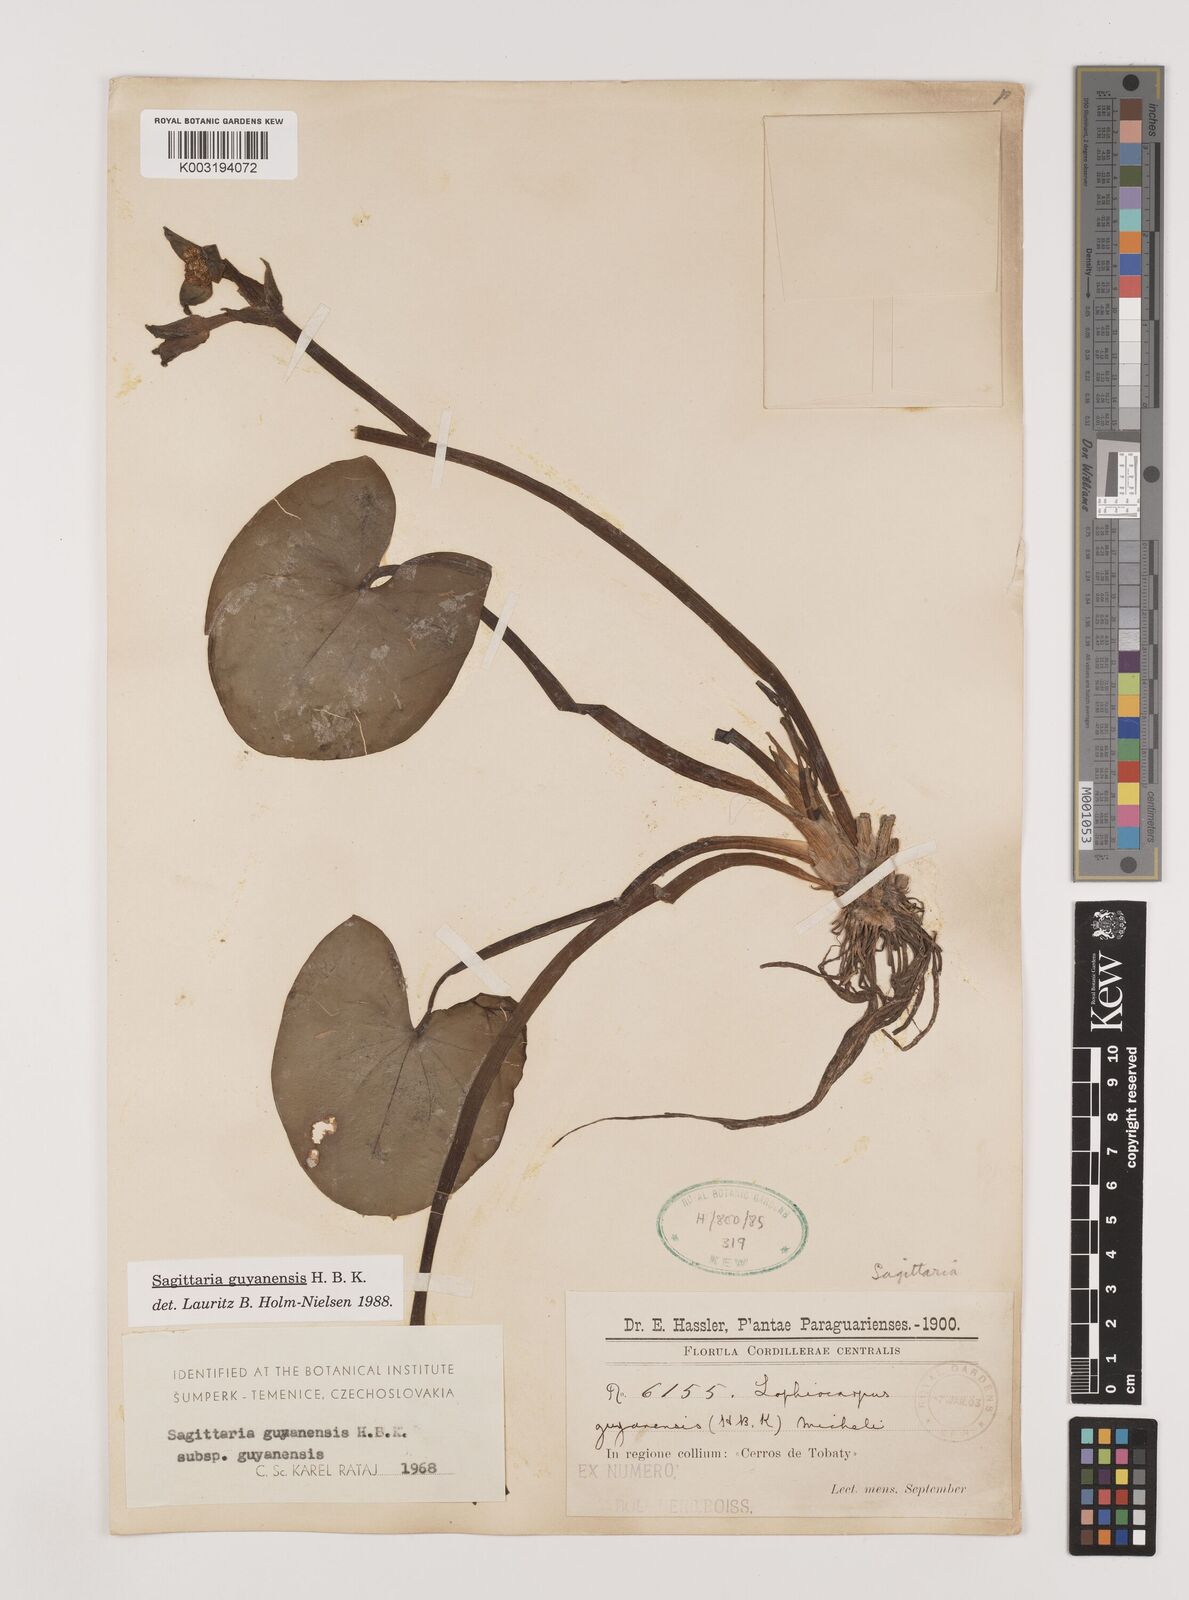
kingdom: Plantae
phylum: Tracheophyta
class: Liliopsida
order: Alismatales
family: Alismataceae
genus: Sagittaria
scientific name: Sagittaria guayanensis
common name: Guyanese arrowhead
